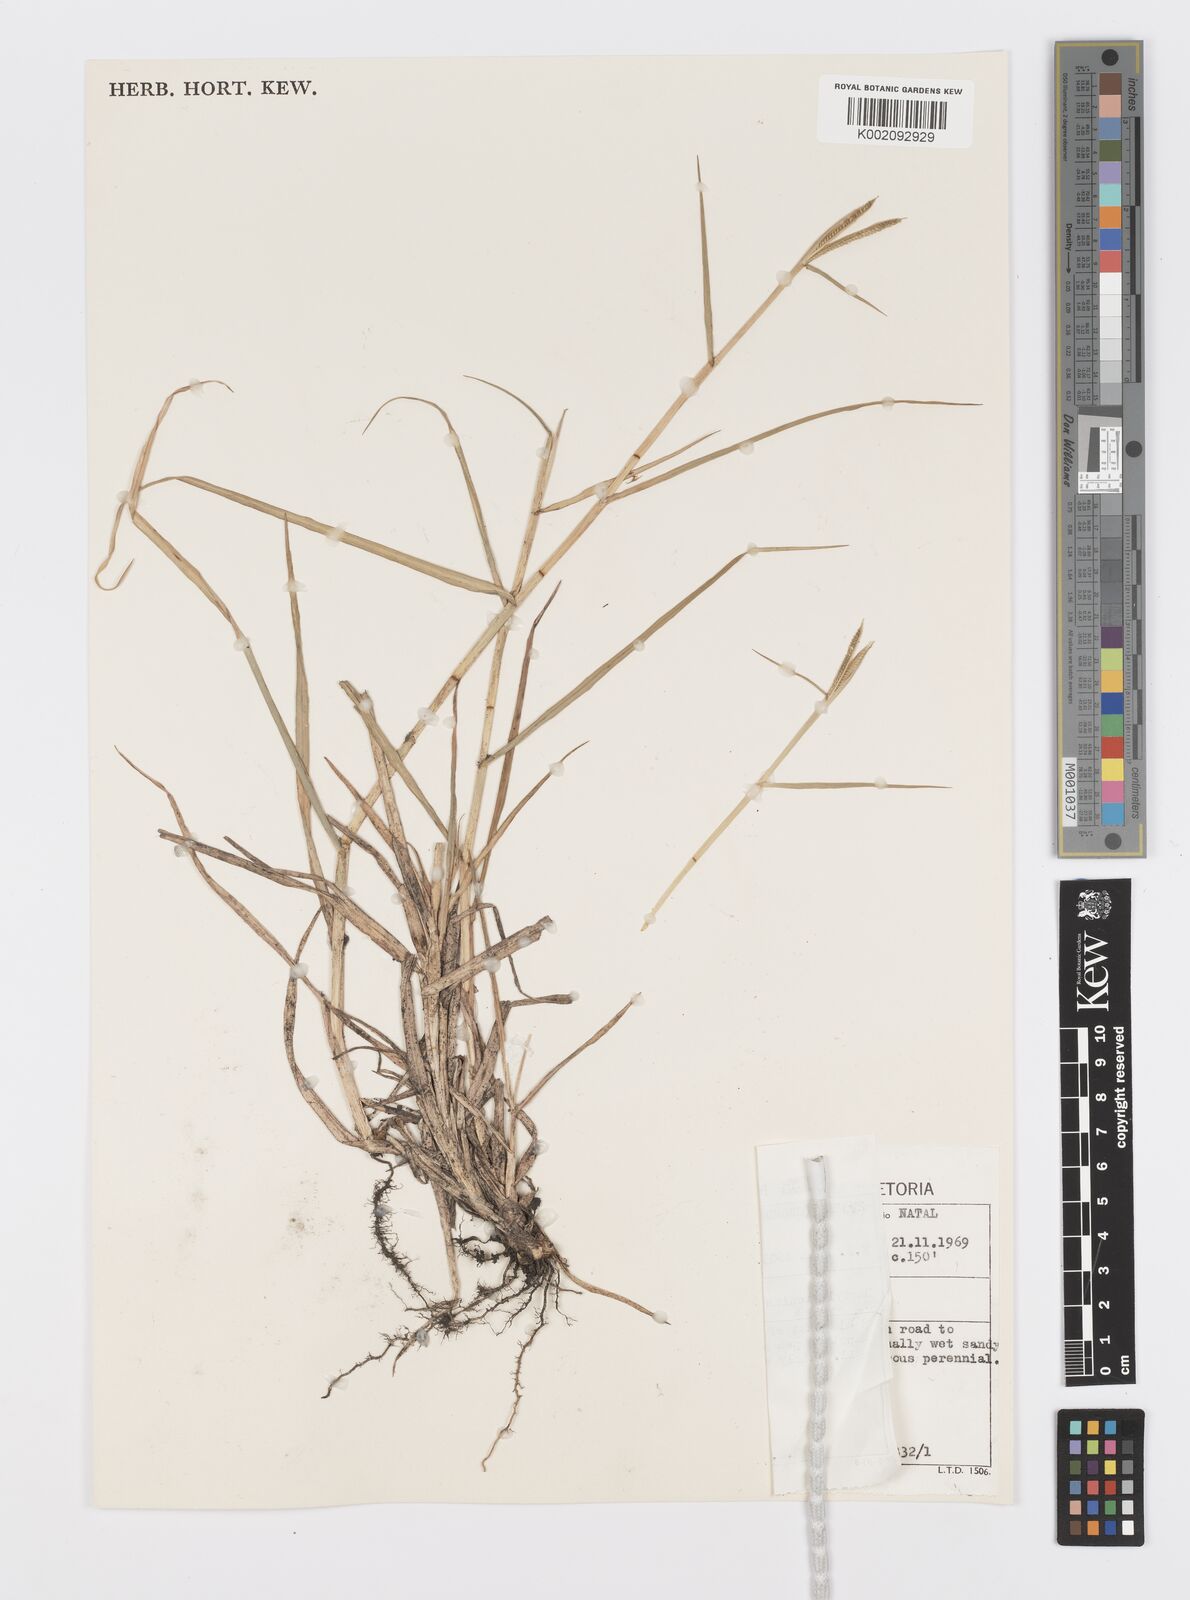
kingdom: Plantae
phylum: Tracheophyta
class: Liliopsida
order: Poales
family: Poaceae
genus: Dactyloctenium
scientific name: Dactyloctenium geminatum
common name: Crowsfoot grass
